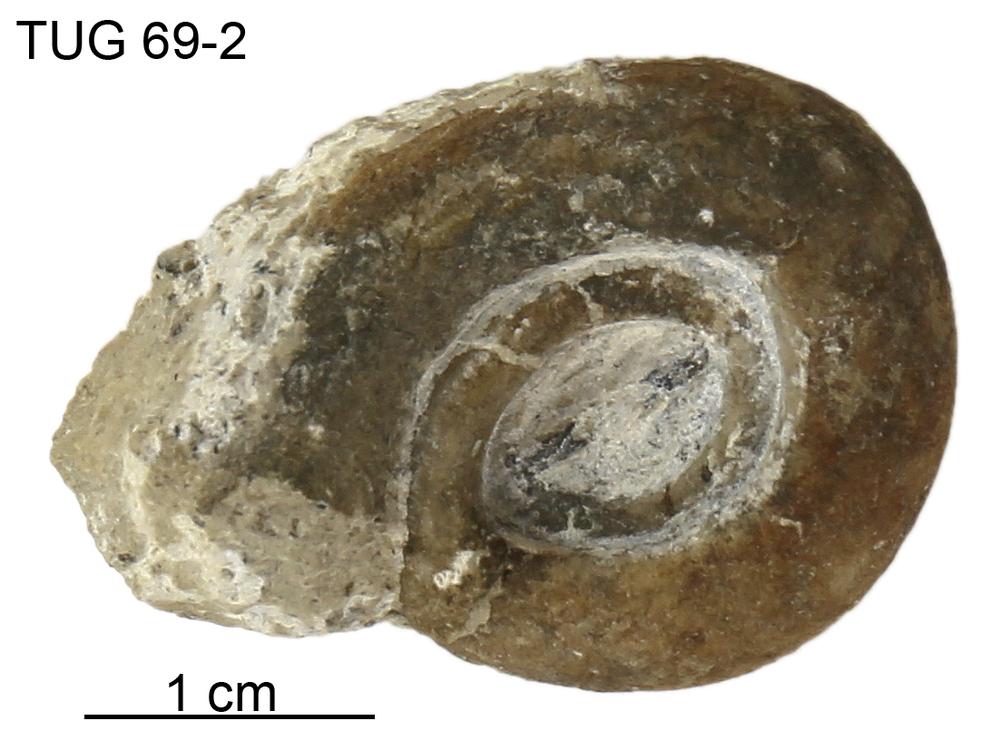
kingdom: Animalia
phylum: Mollusca
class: Gastropoda
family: Bucaniidae
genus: Megalomphala
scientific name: Megalomphala
